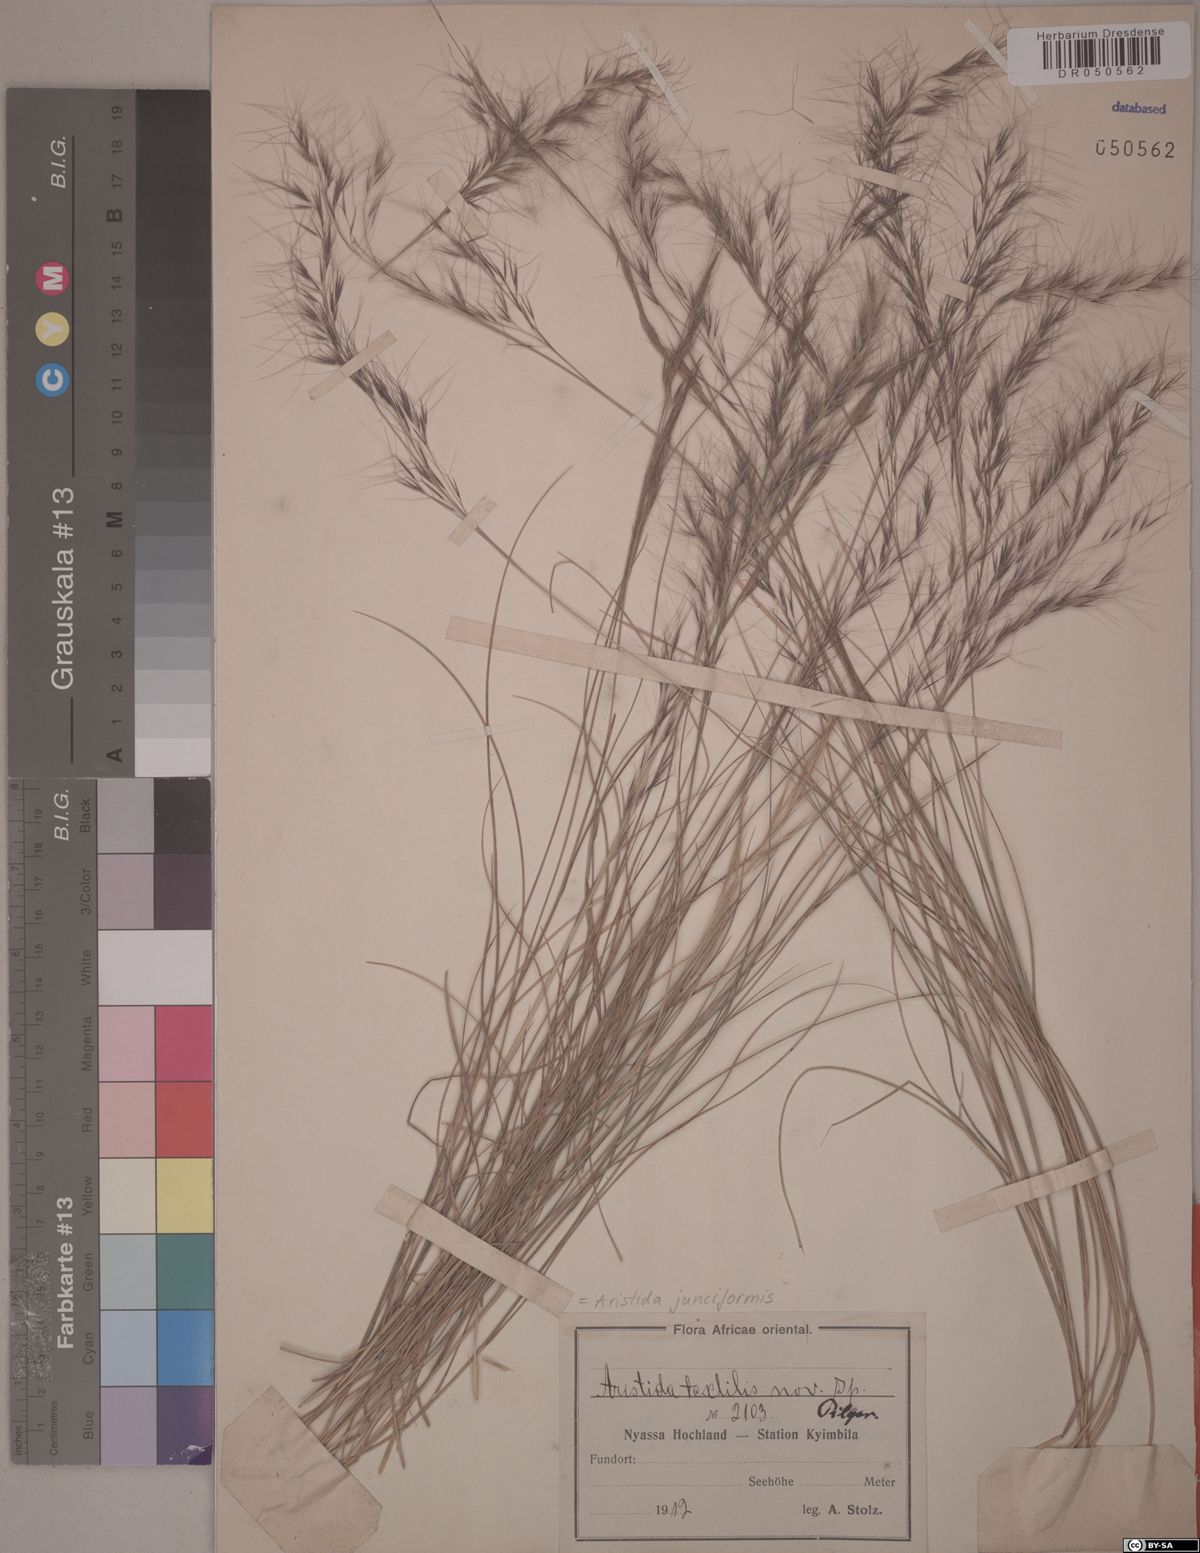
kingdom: Plantae
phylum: Tracheophyta
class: Liliopsida
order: Poales
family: Poaceae
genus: Aristida
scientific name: Aristida junciformis
